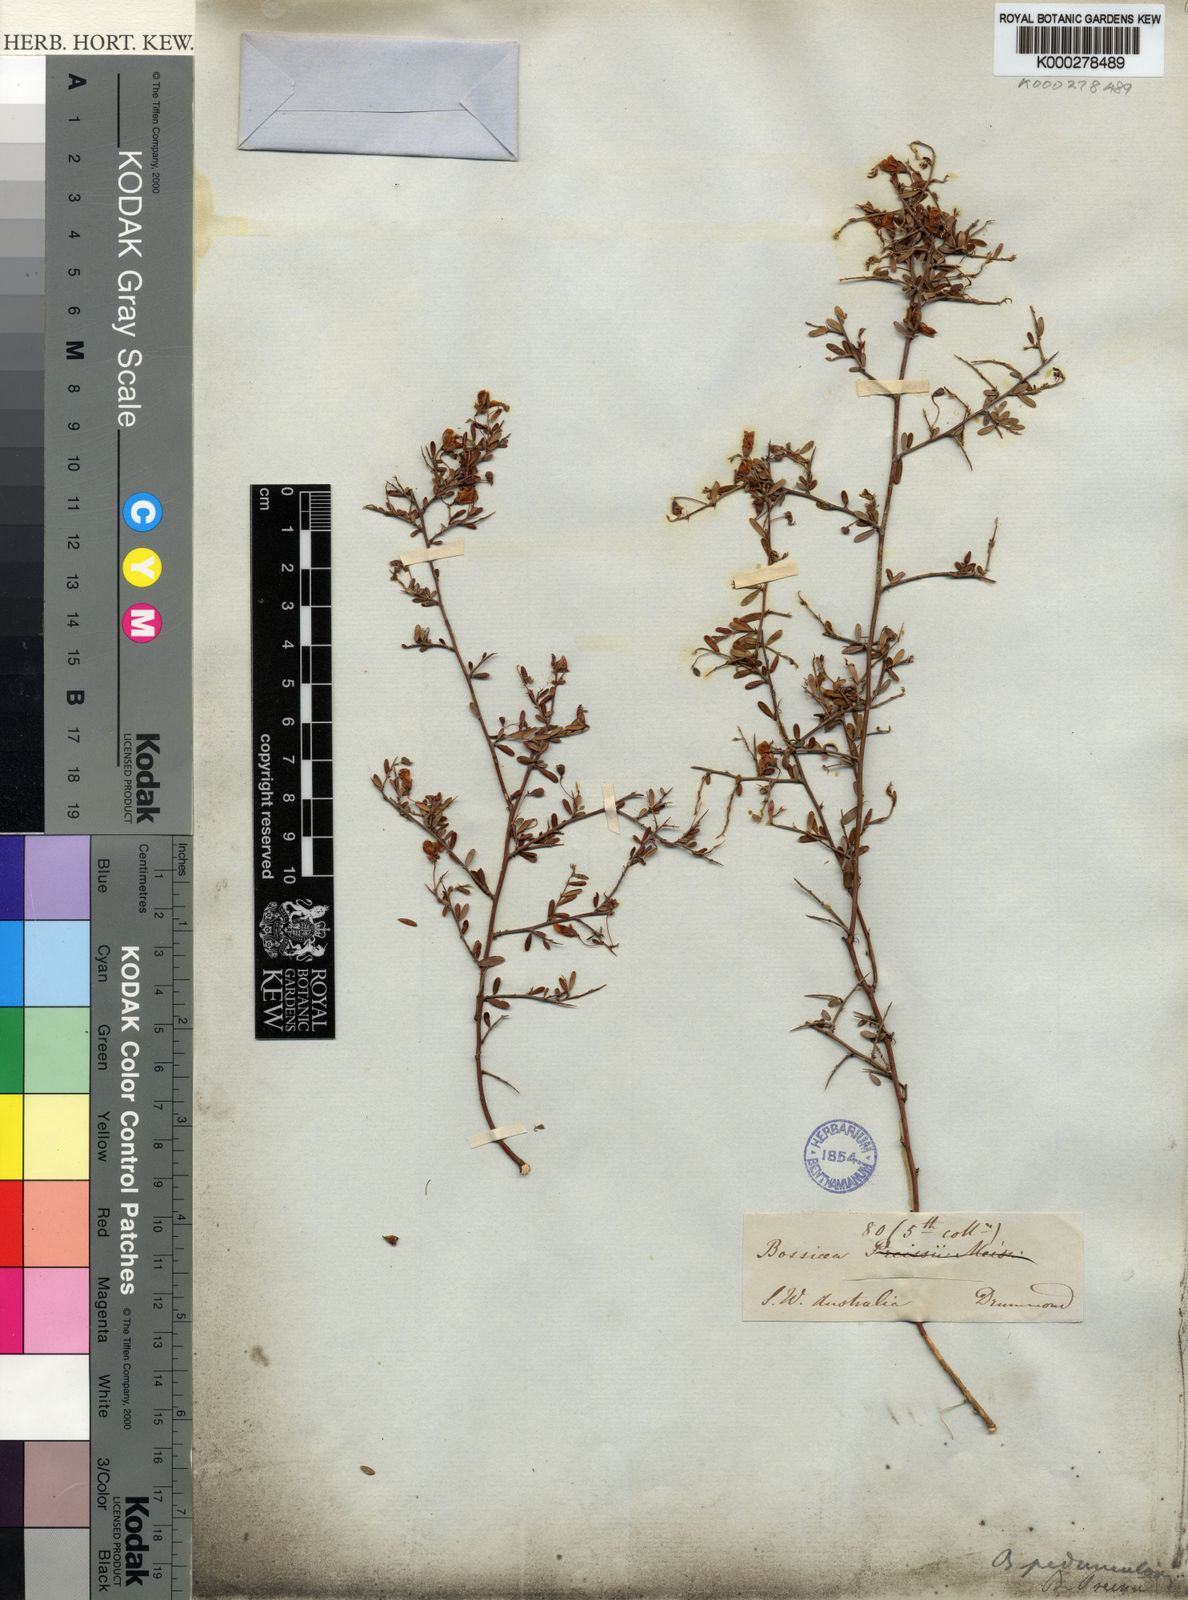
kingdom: Plantae
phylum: Tracheophyta
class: Magnoliopsida
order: Fabales
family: Fabaceae
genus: Bossiaea
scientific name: Bossiaea peduncularis
